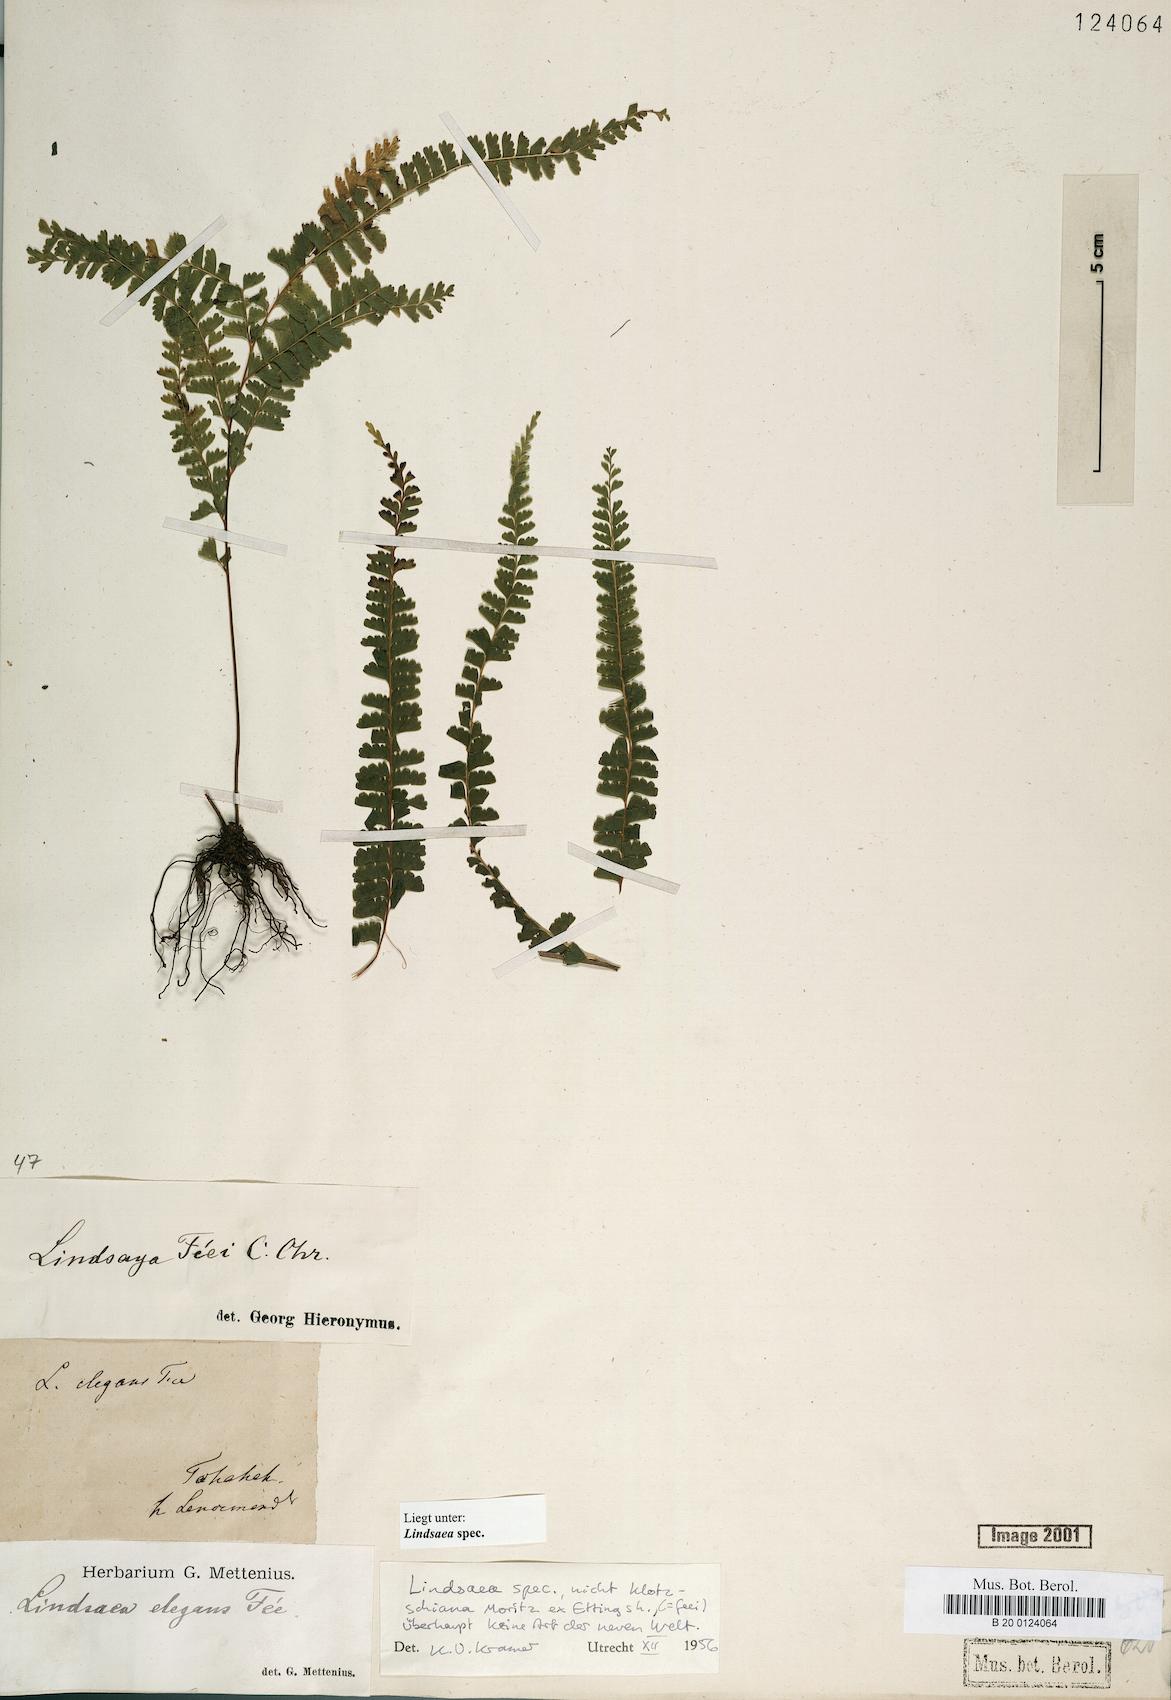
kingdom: Plantae
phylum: Tracheophyta
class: Polypodiopsida
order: Polypodiales
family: Lindsaeaceae
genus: Lindsaea
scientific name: Lindsaea
